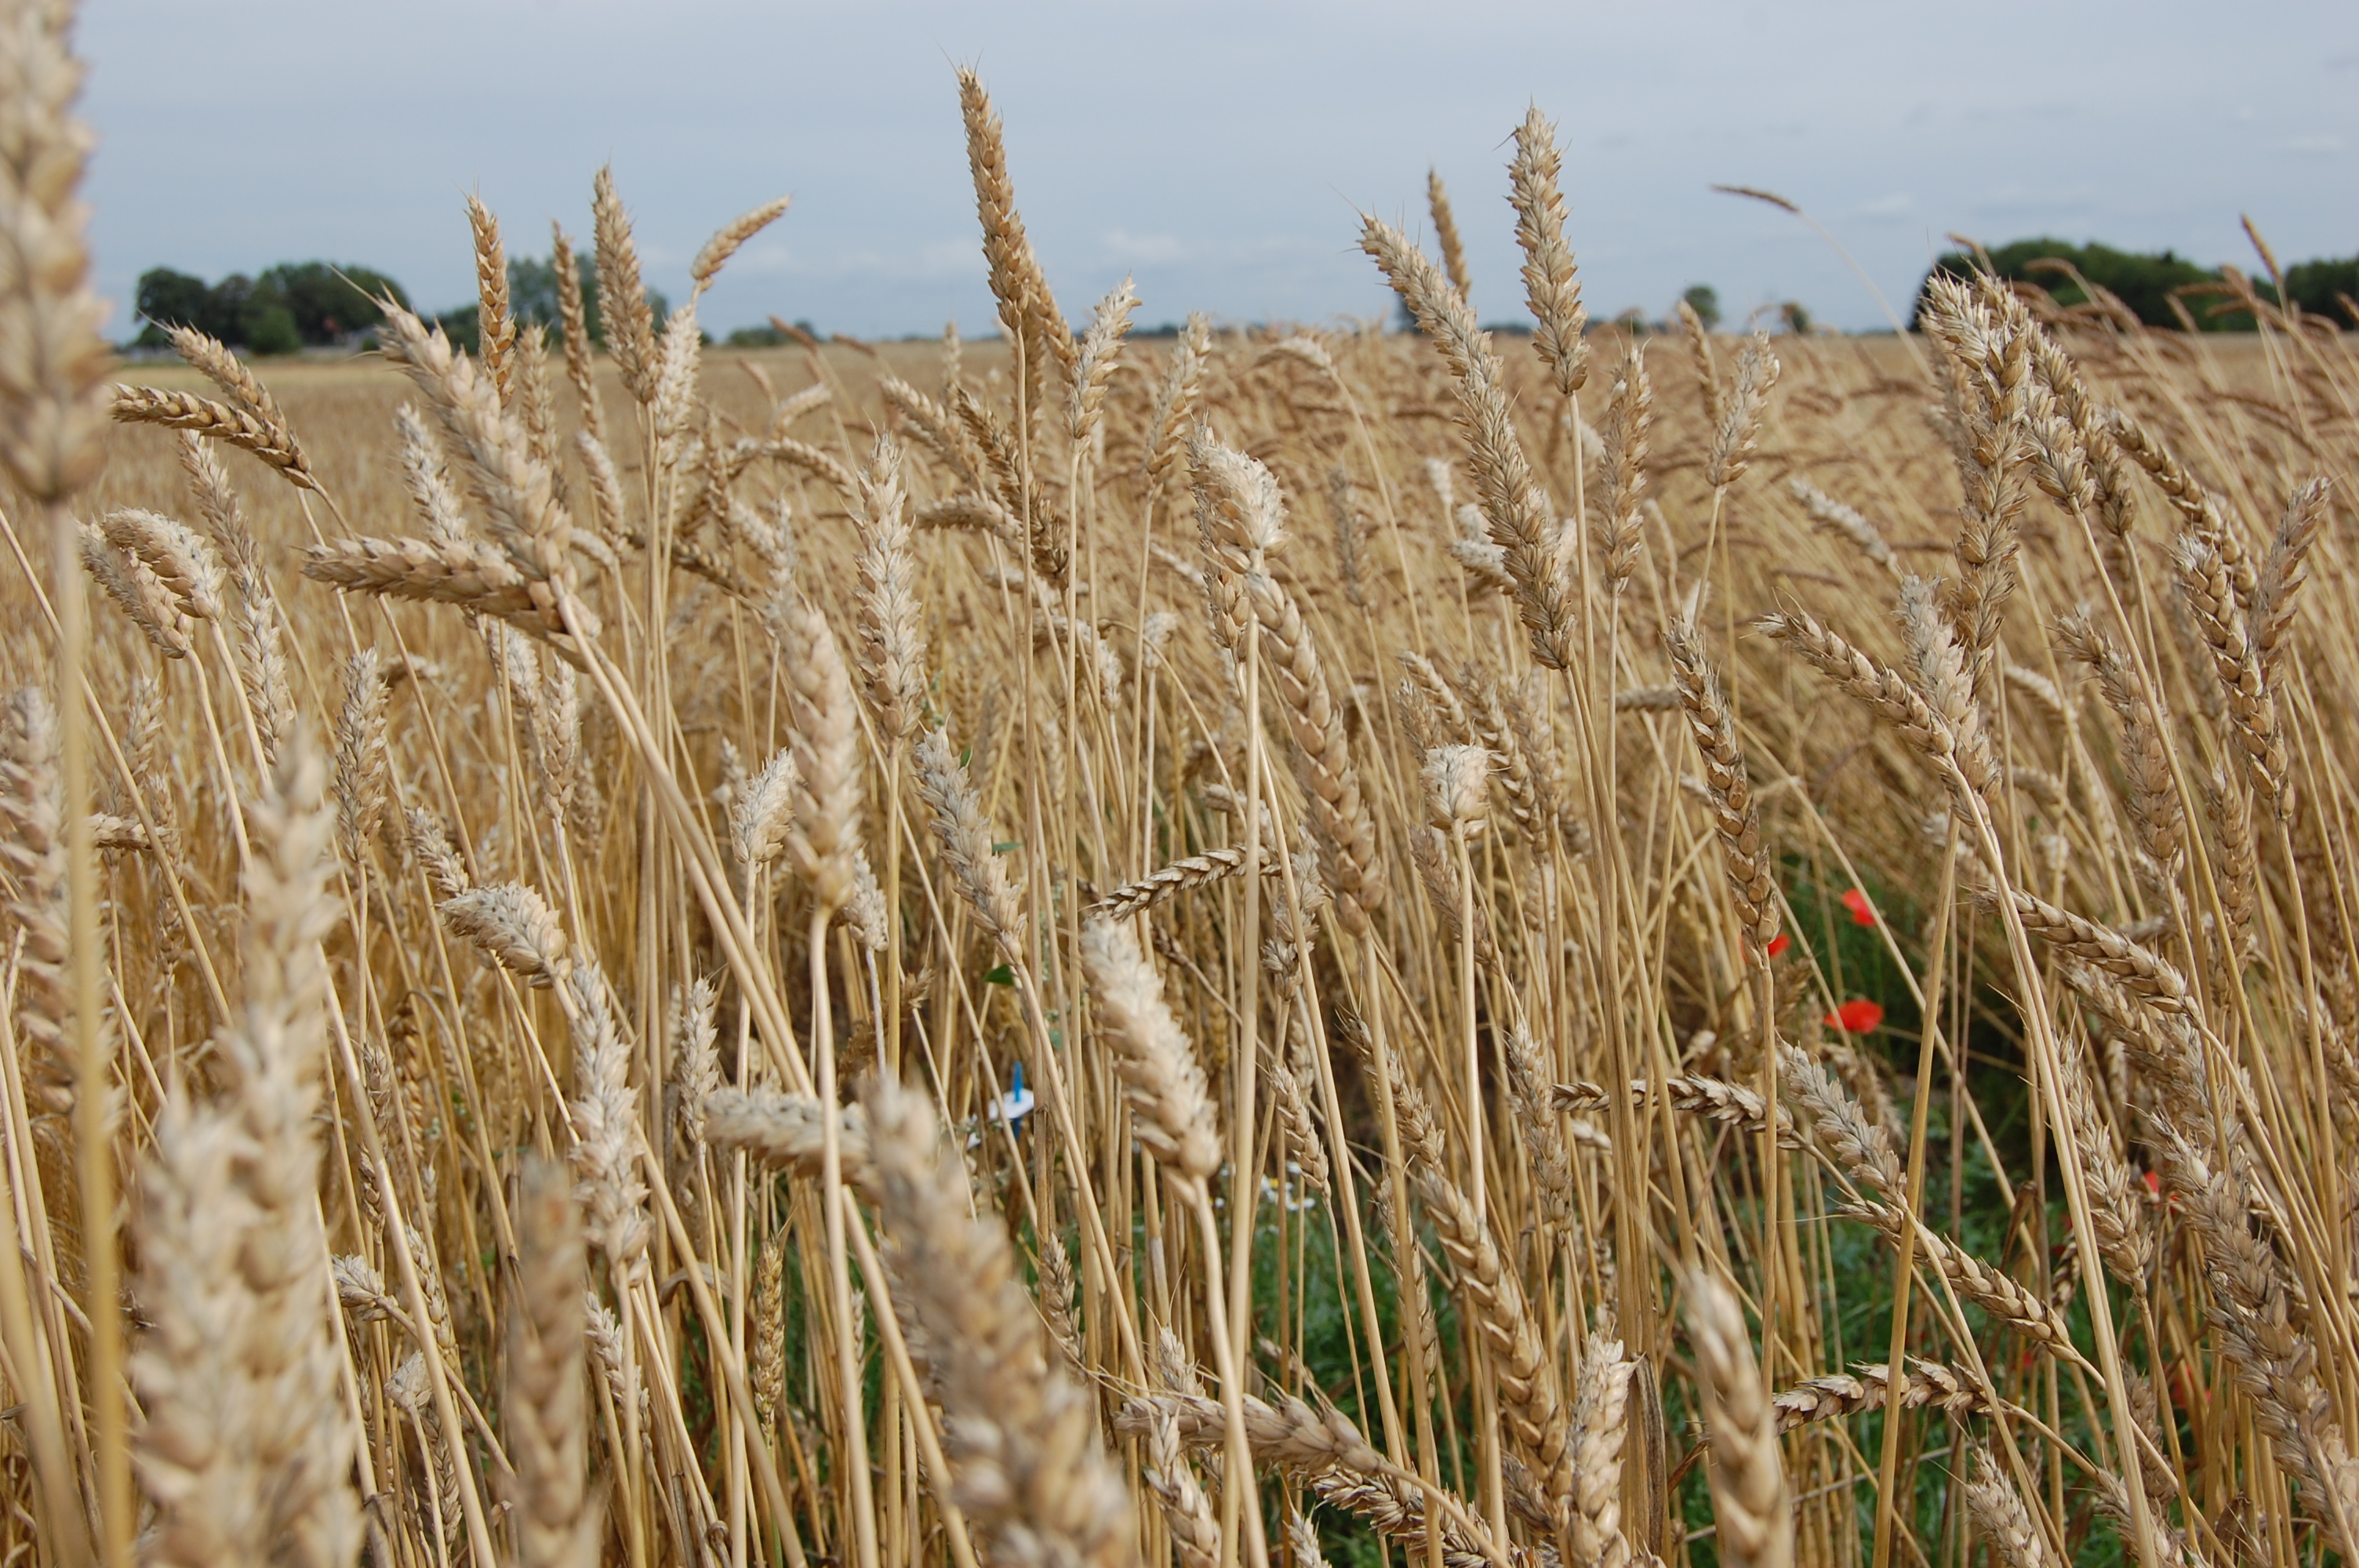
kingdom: Plantae
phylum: Tracheophyta
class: Liliopsida
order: Poales
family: Poaceae
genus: Triticum
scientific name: Triticum aestivum
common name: Common wheat
